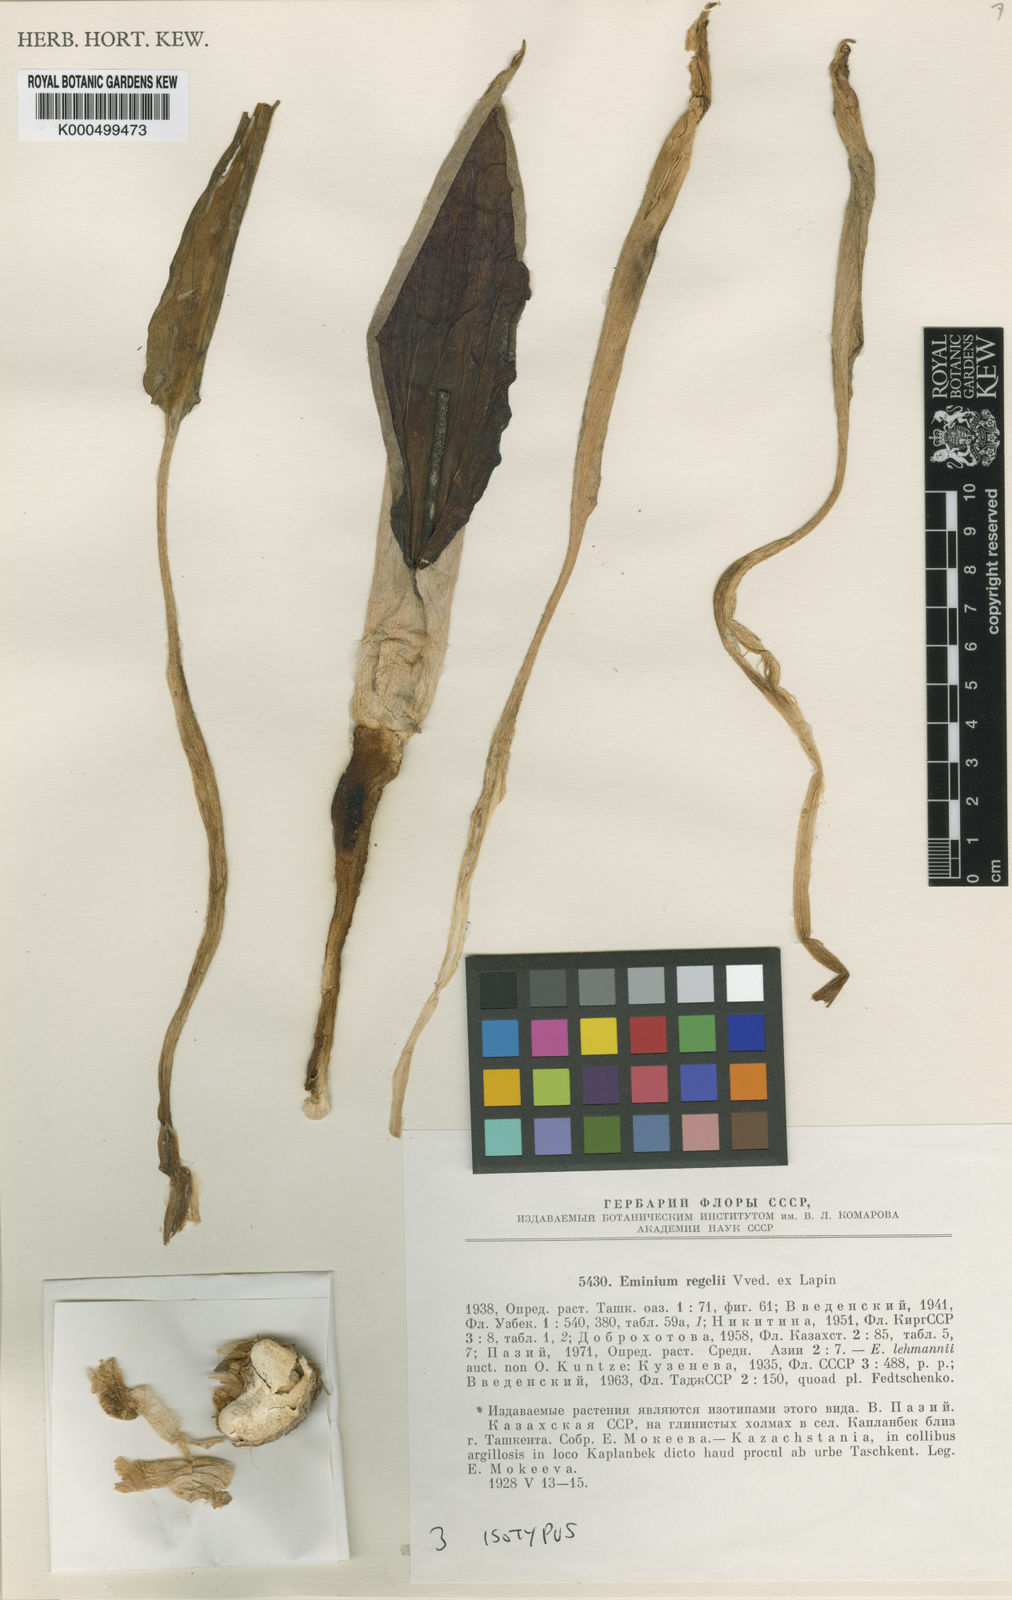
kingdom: Plantae
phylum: Tracheophyta
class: Liliopsida
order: Alismatales
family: Araceae
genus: Eminium
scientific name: Eminium
